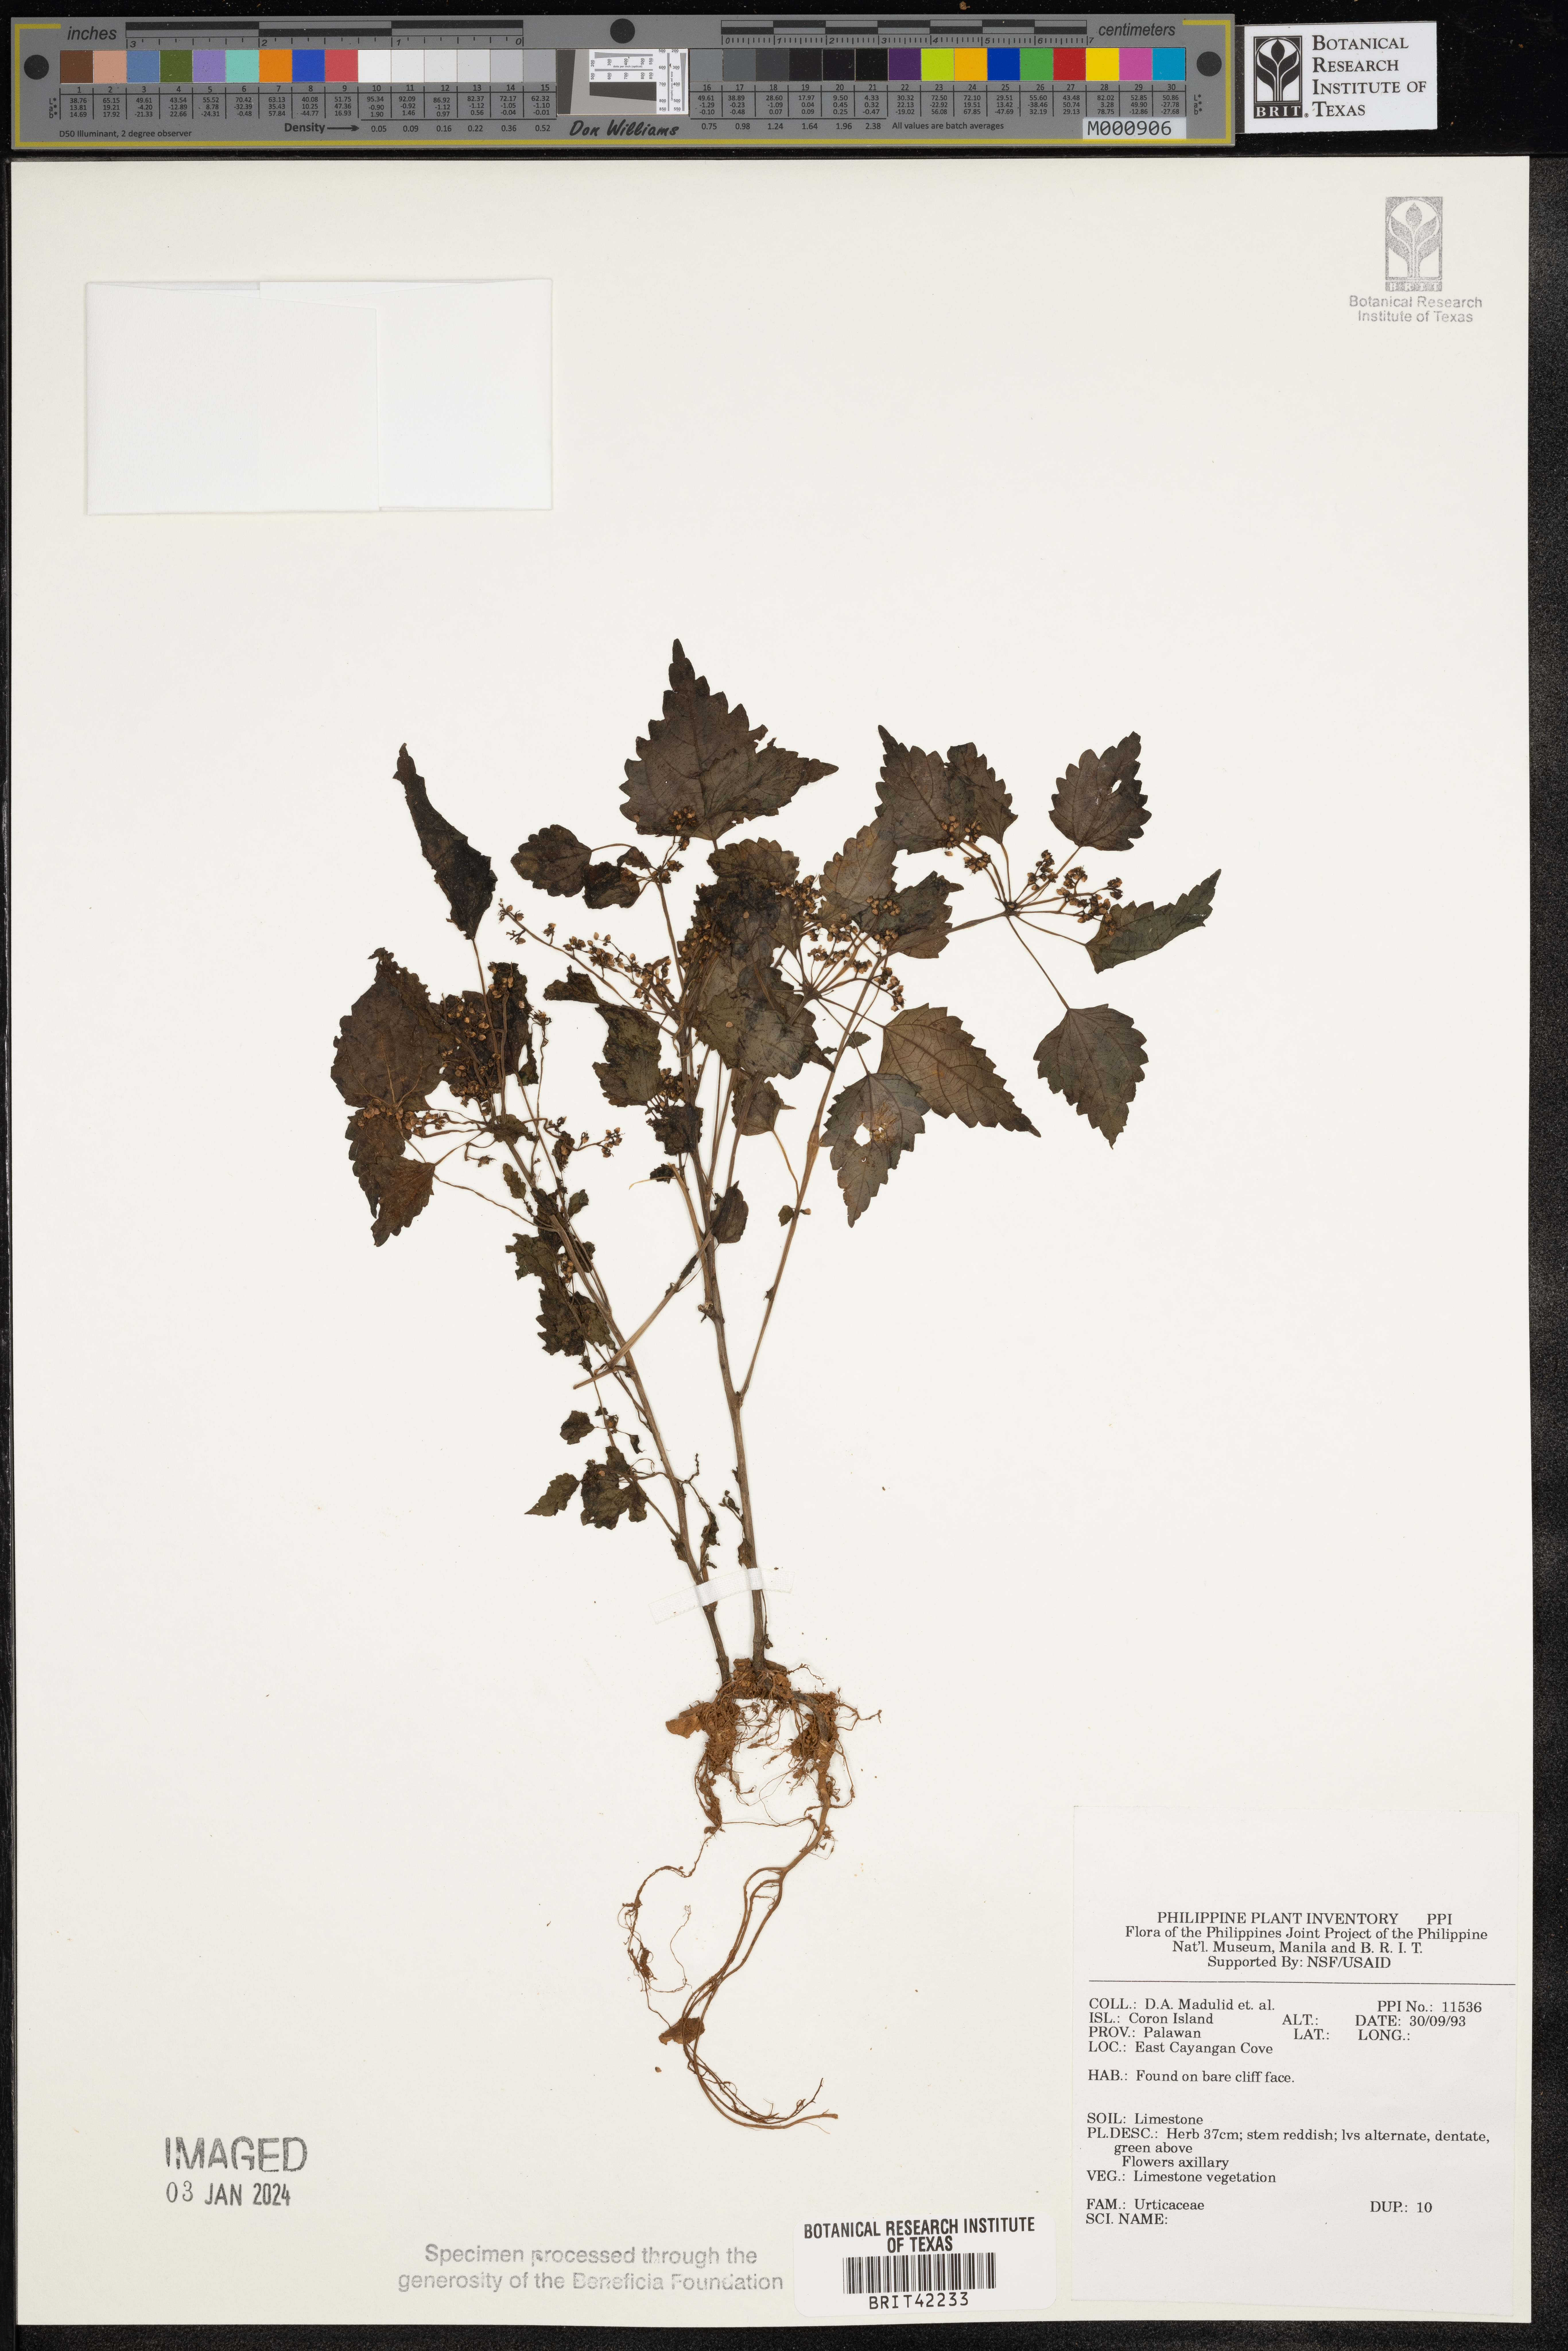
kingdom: Plantae
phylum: Tracheophyta
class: Magnoliopsida
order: Rosales
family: Urticaceae
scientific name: Urticaceae
